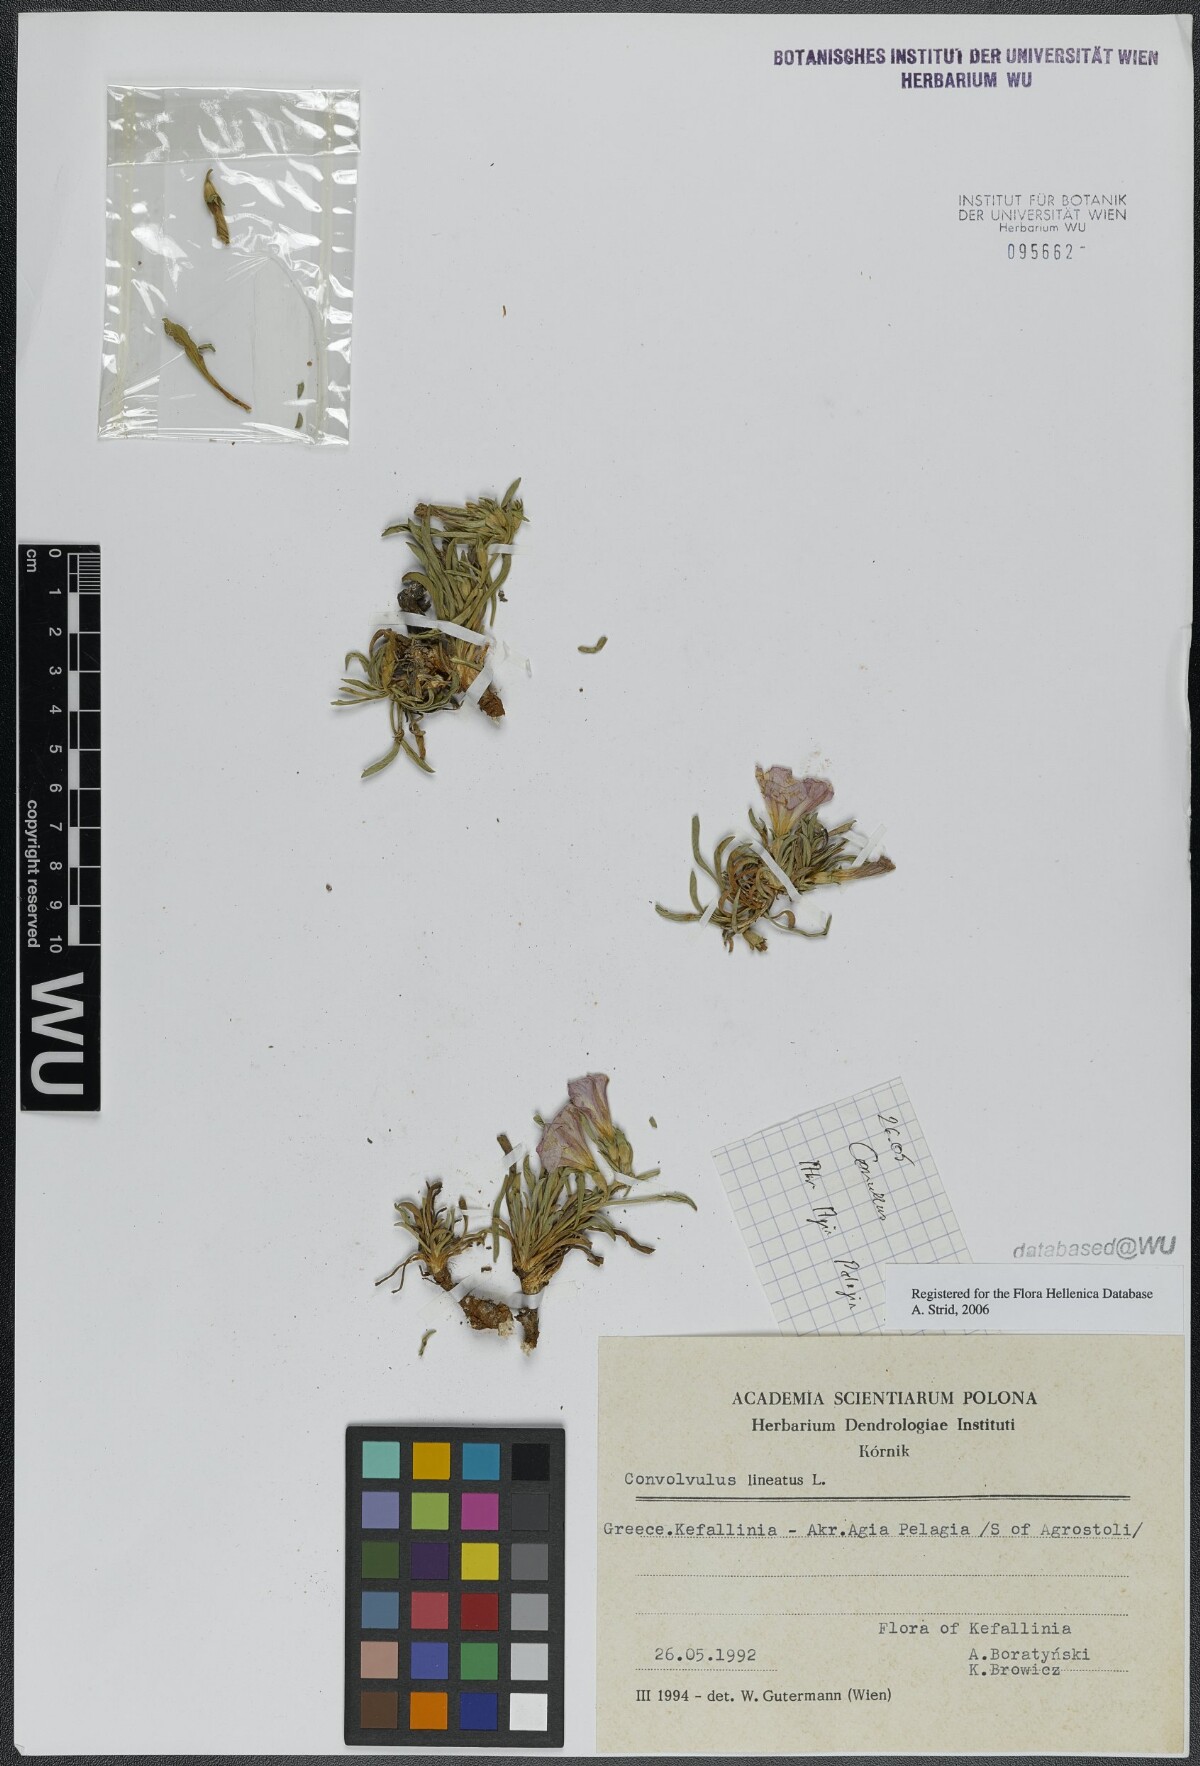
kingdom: Plantae
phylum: Tracheophyta
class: Magnoliopsida
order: Solanales
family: Convolvulaceae
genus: Convolvulus
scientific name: Convolvulus lineatus
